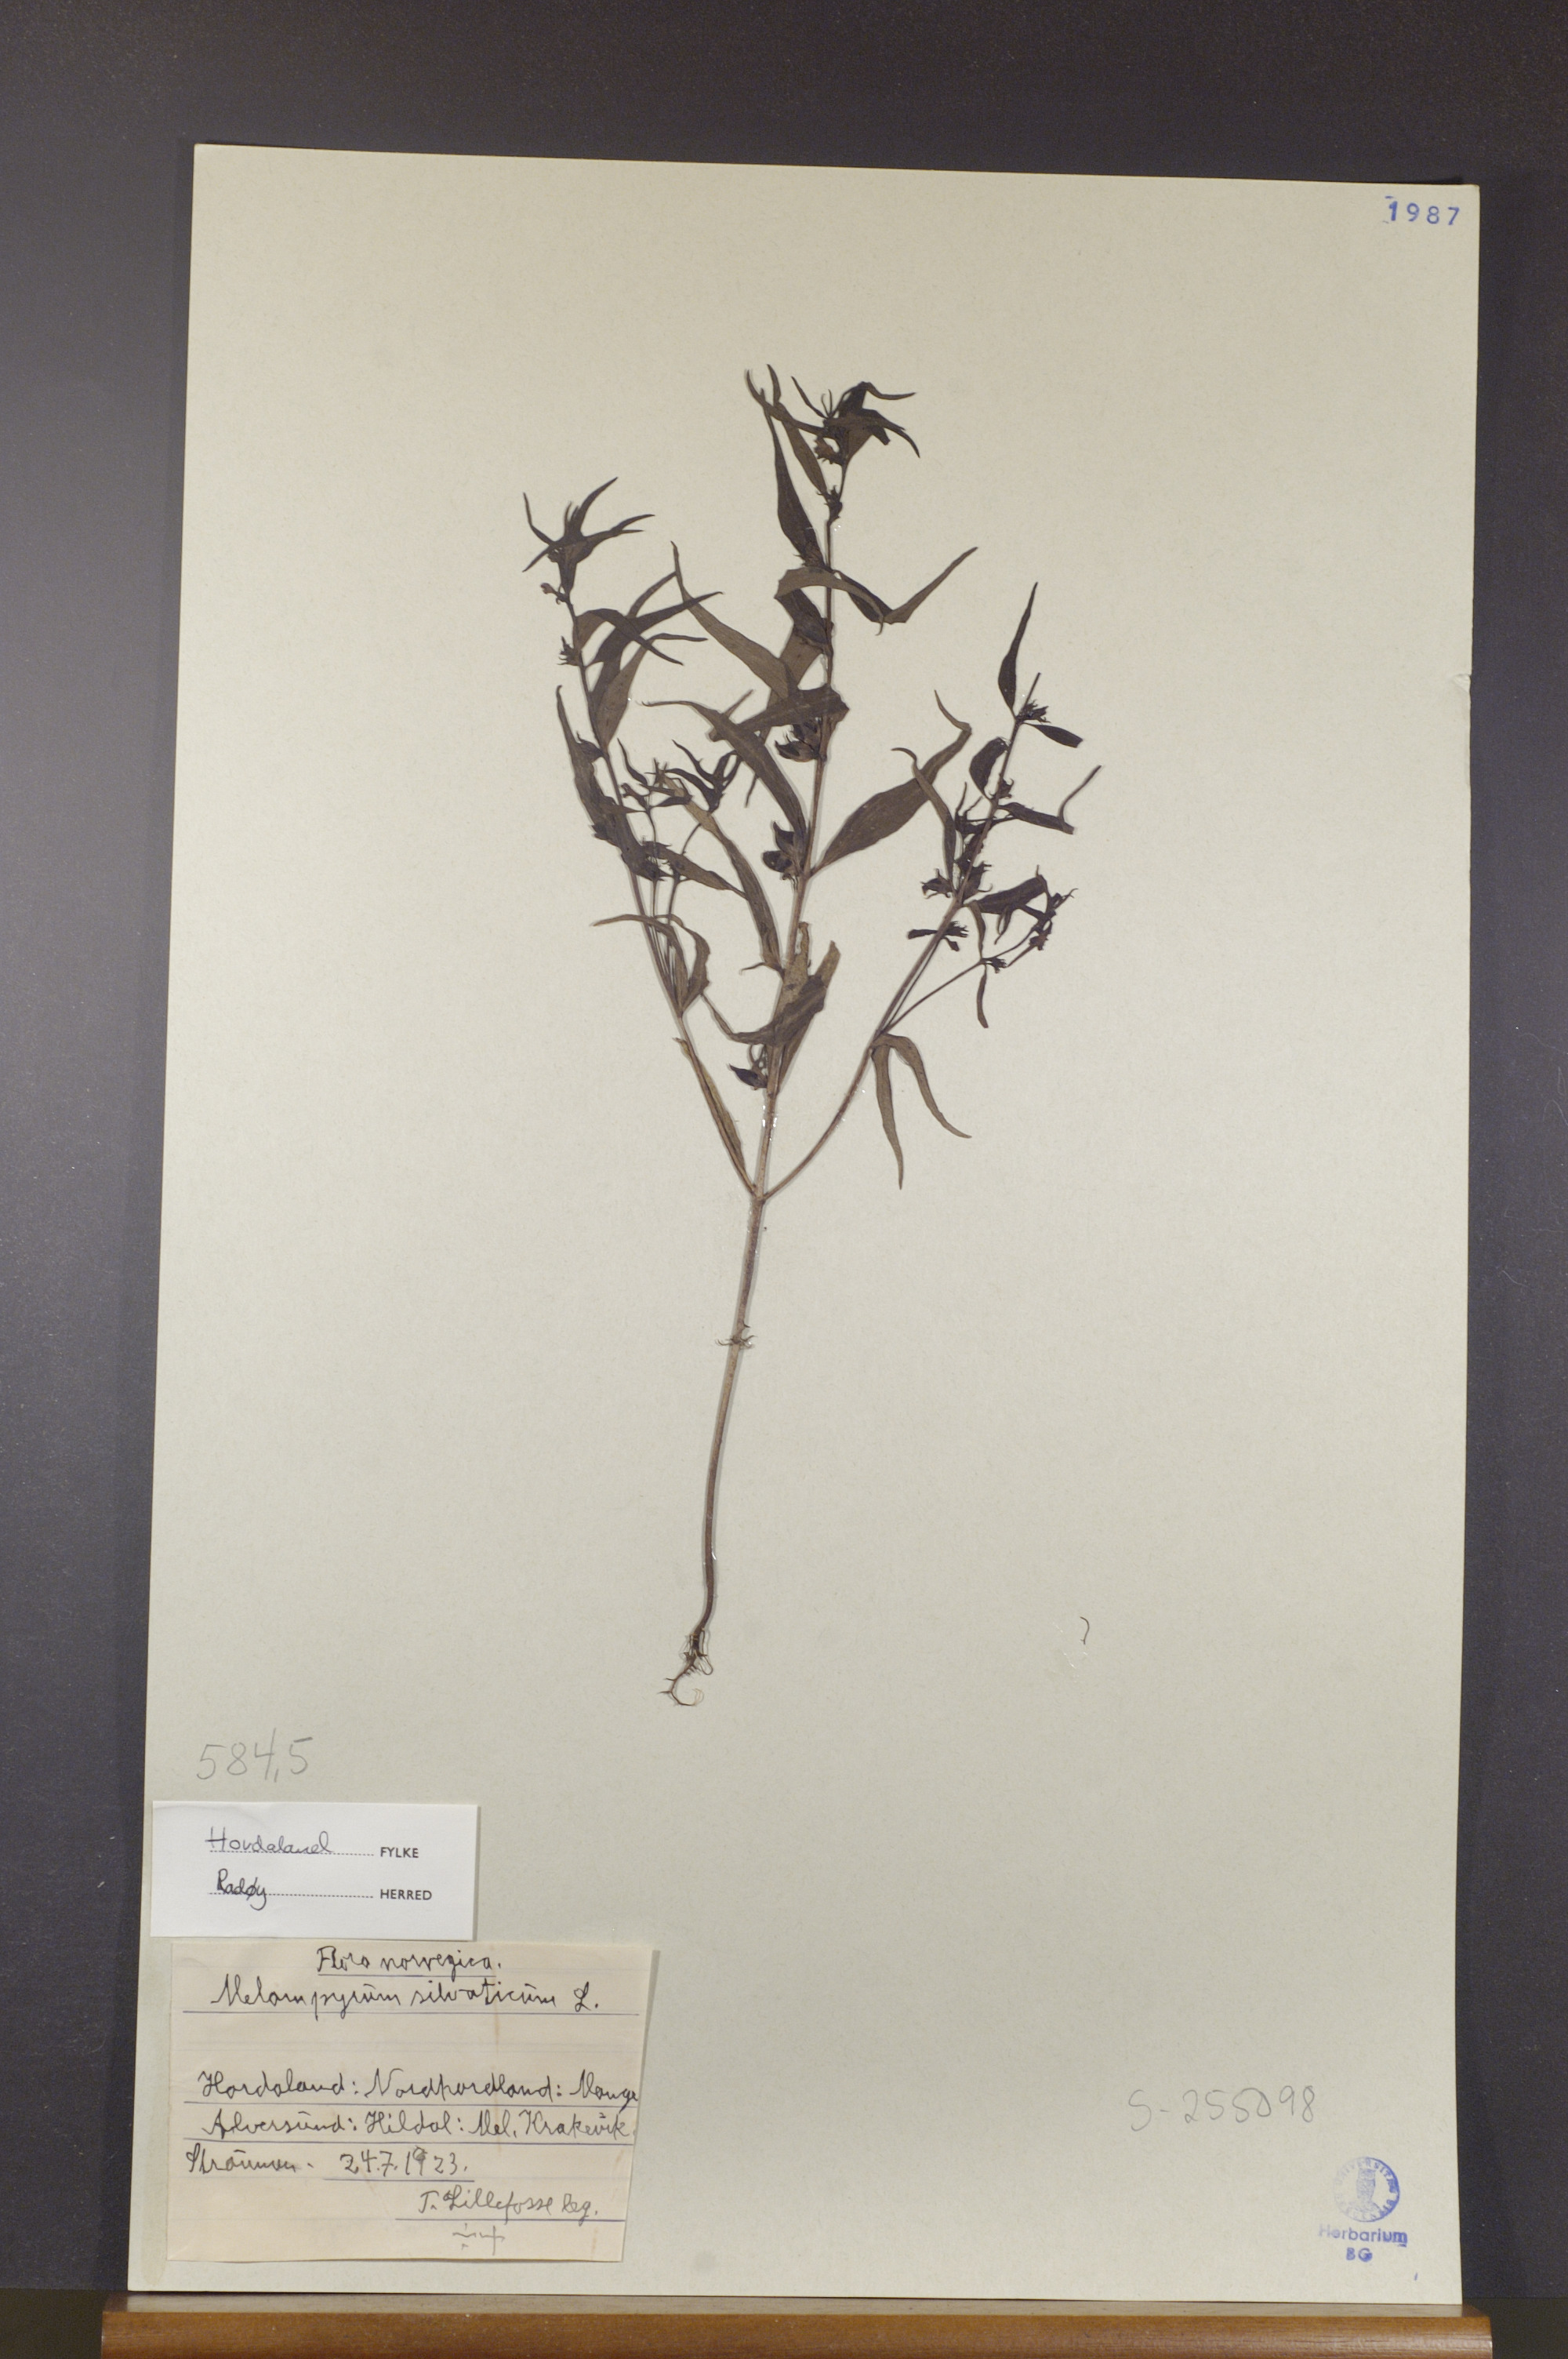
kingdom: Plantae
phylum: Tracheophyta
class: Magnoliopsida
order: Lamiales
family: Orobanchaceae
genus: Melampyrum
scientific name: Melampyrum sylvaticum
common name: Small cow-wheat
